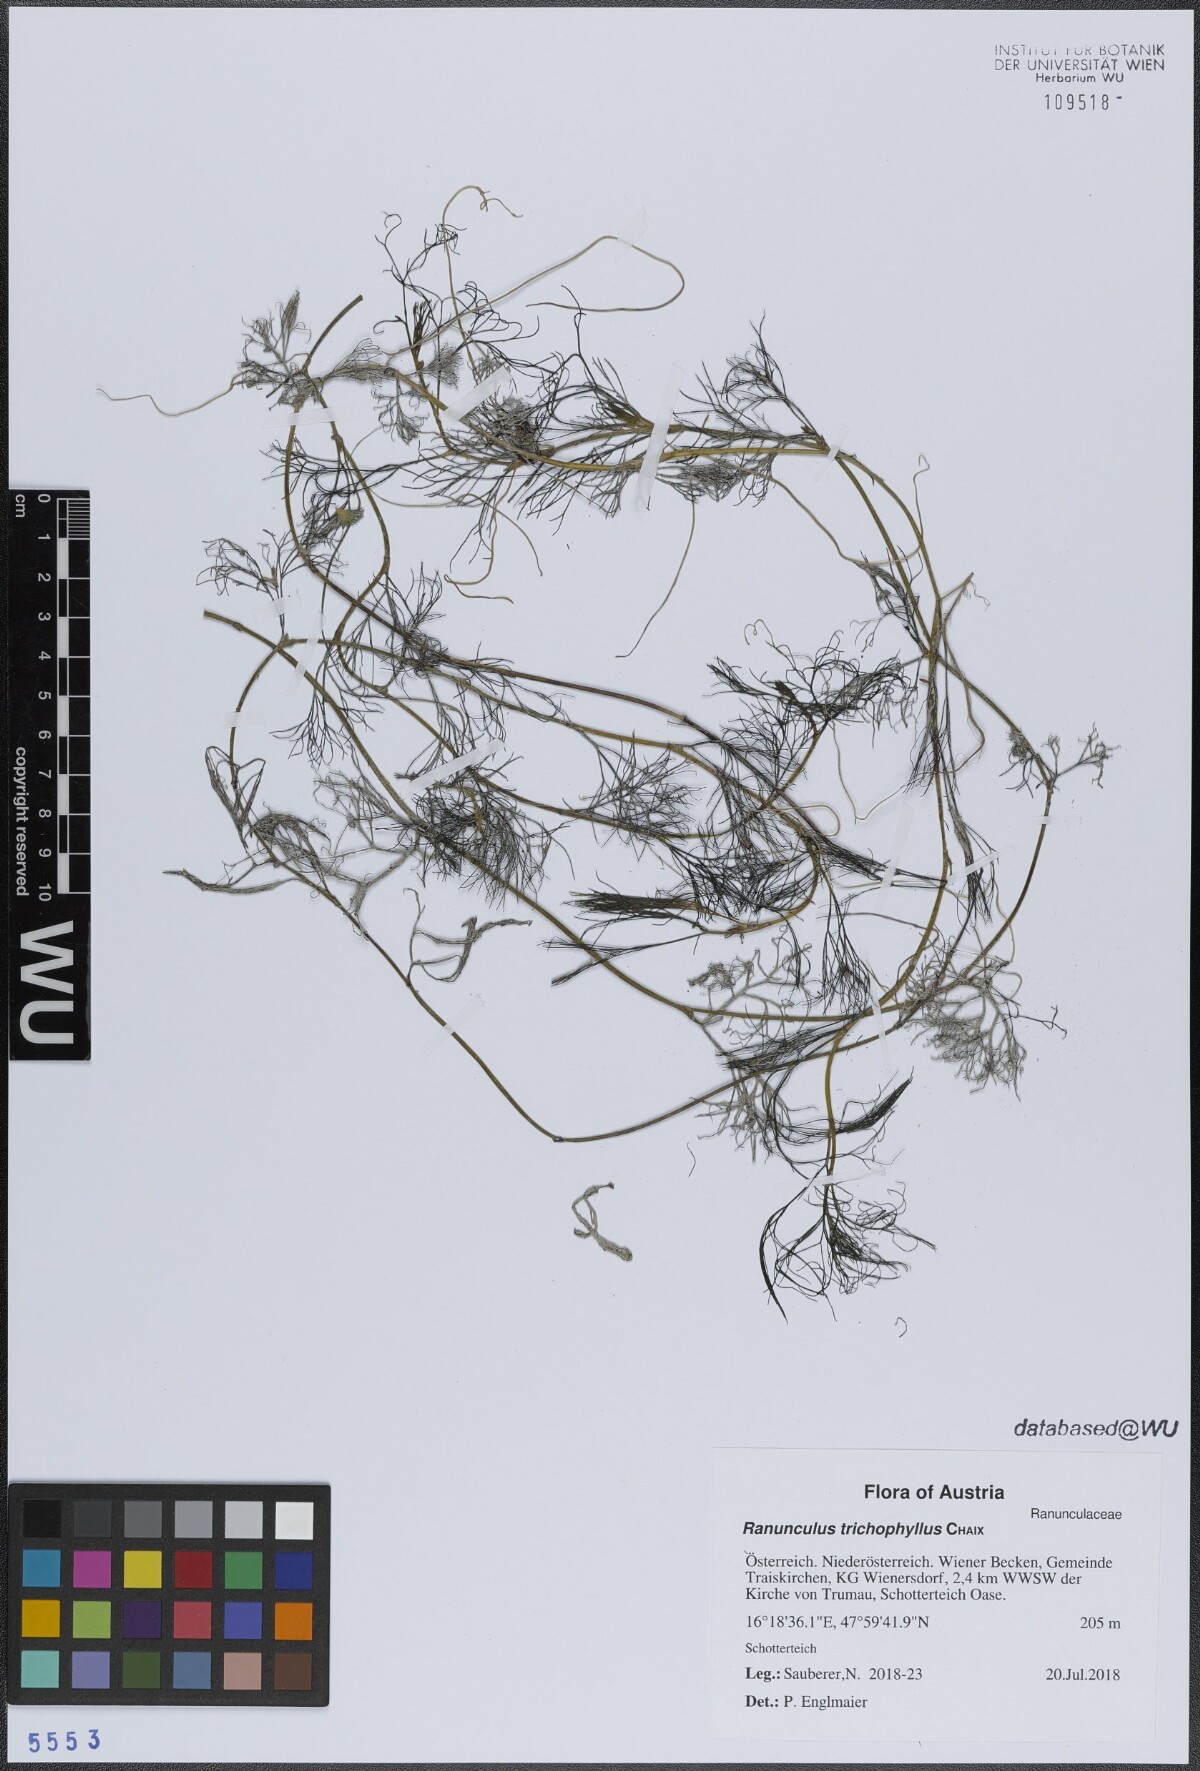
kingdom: Plantae
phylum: Tracheophyta
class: Magnoliopsida
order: Ranunculales
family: Ranunculaceae
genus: Ranunculus
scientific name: Ranunculus trichophyllus
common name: Thread-leaved water-crowfoot
